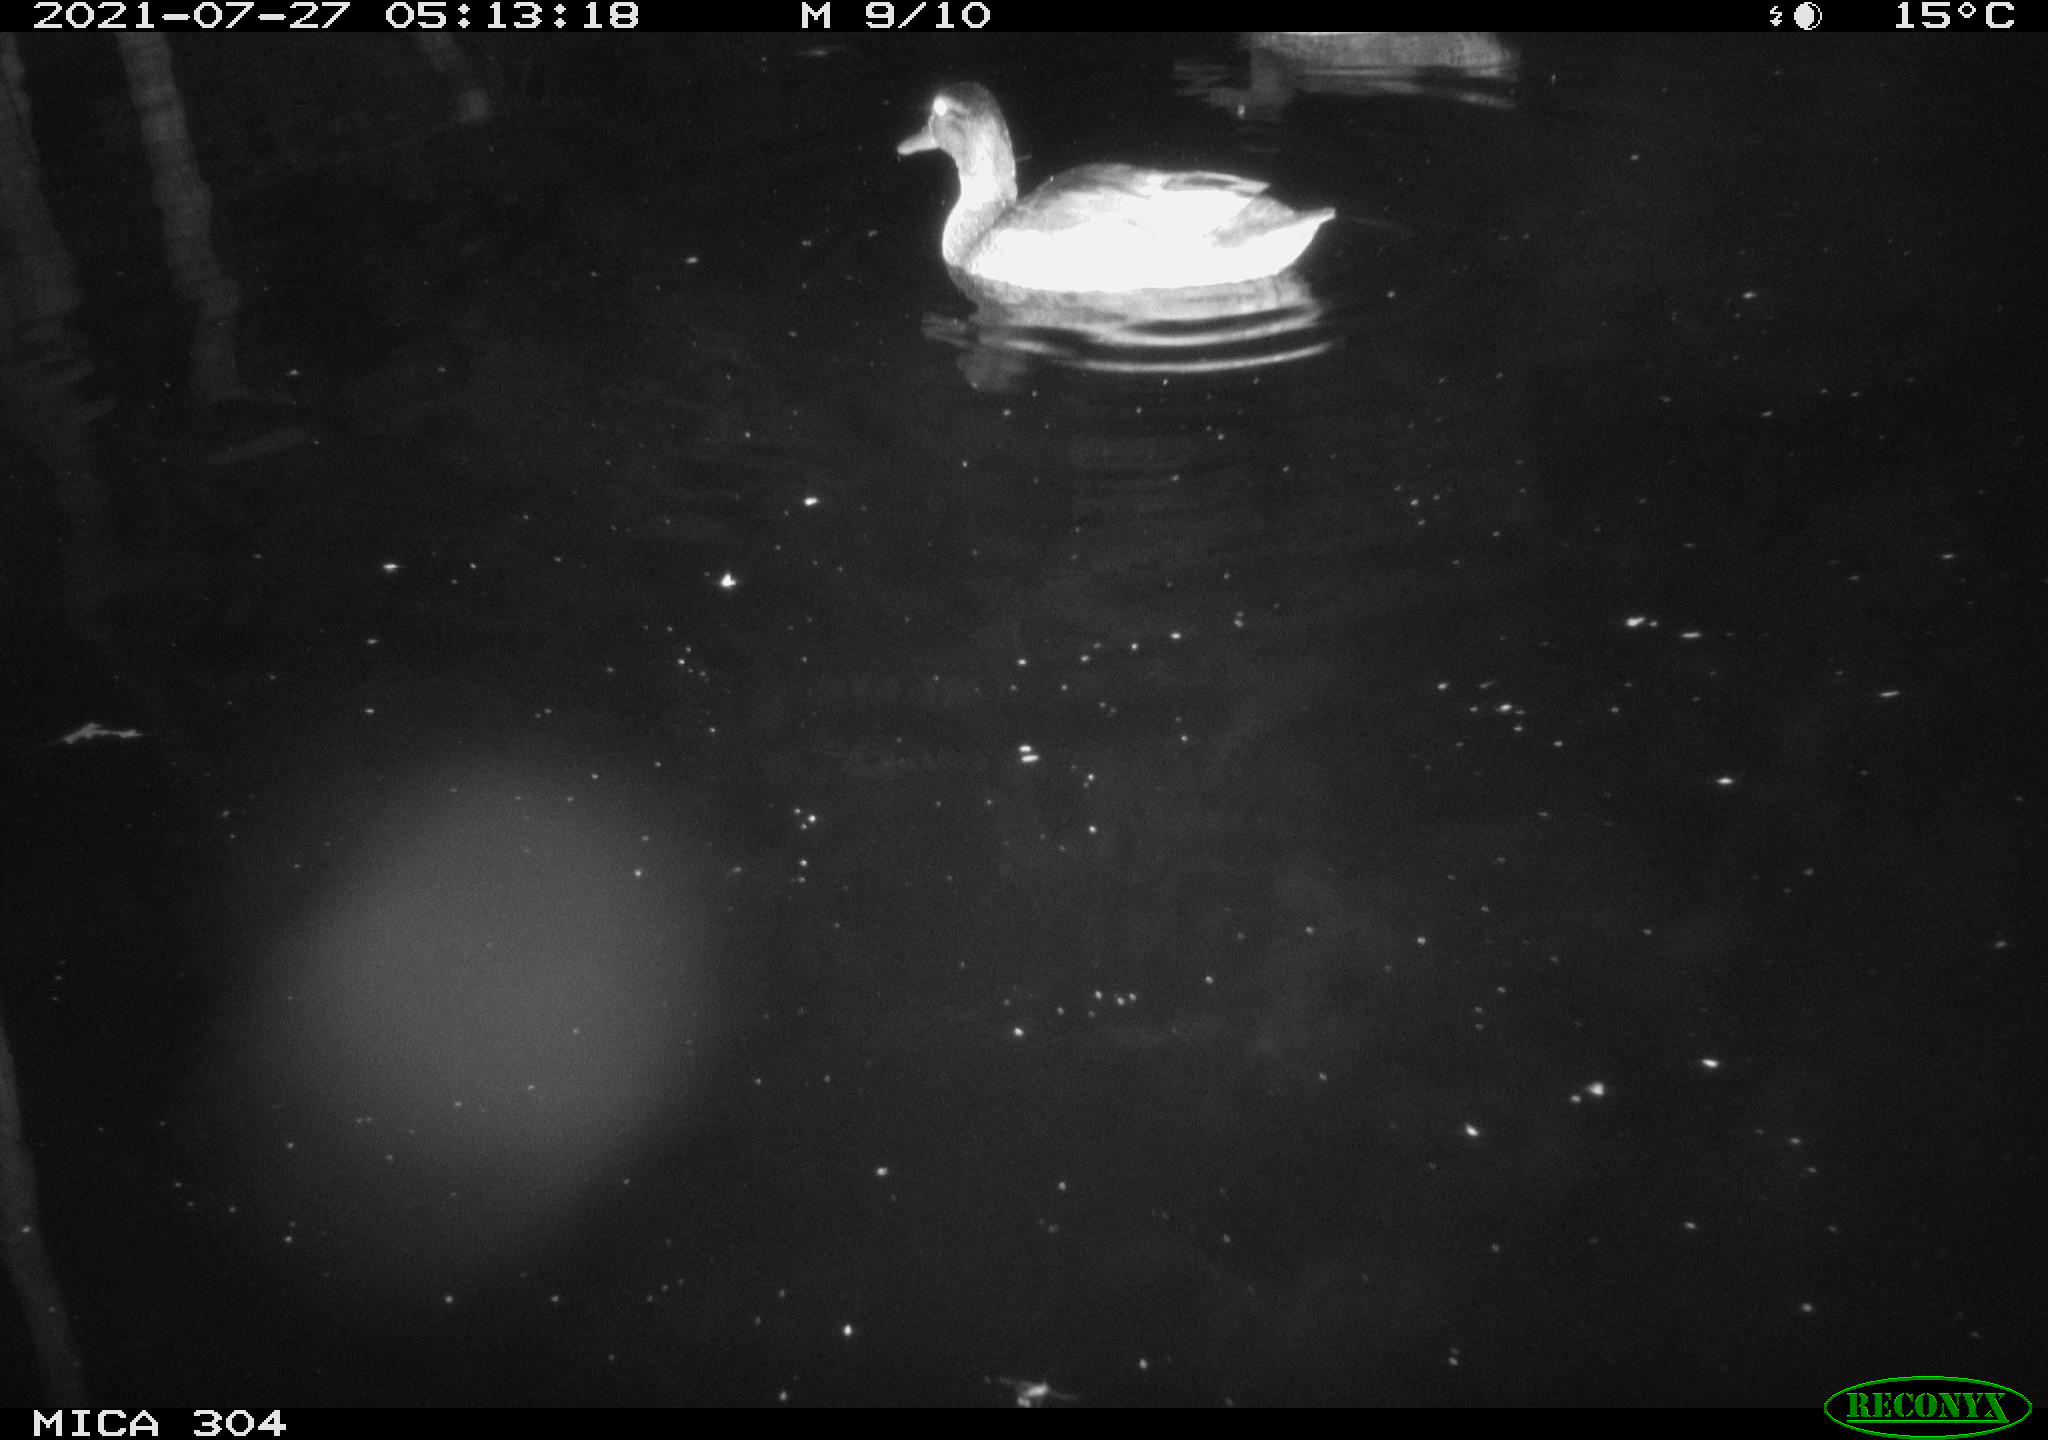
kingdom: Animalia
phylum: Chordata
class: Aves
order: Anseriformes
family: Anatidae
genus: Anas
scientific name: Anas platyrhynchos
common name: Mallard
